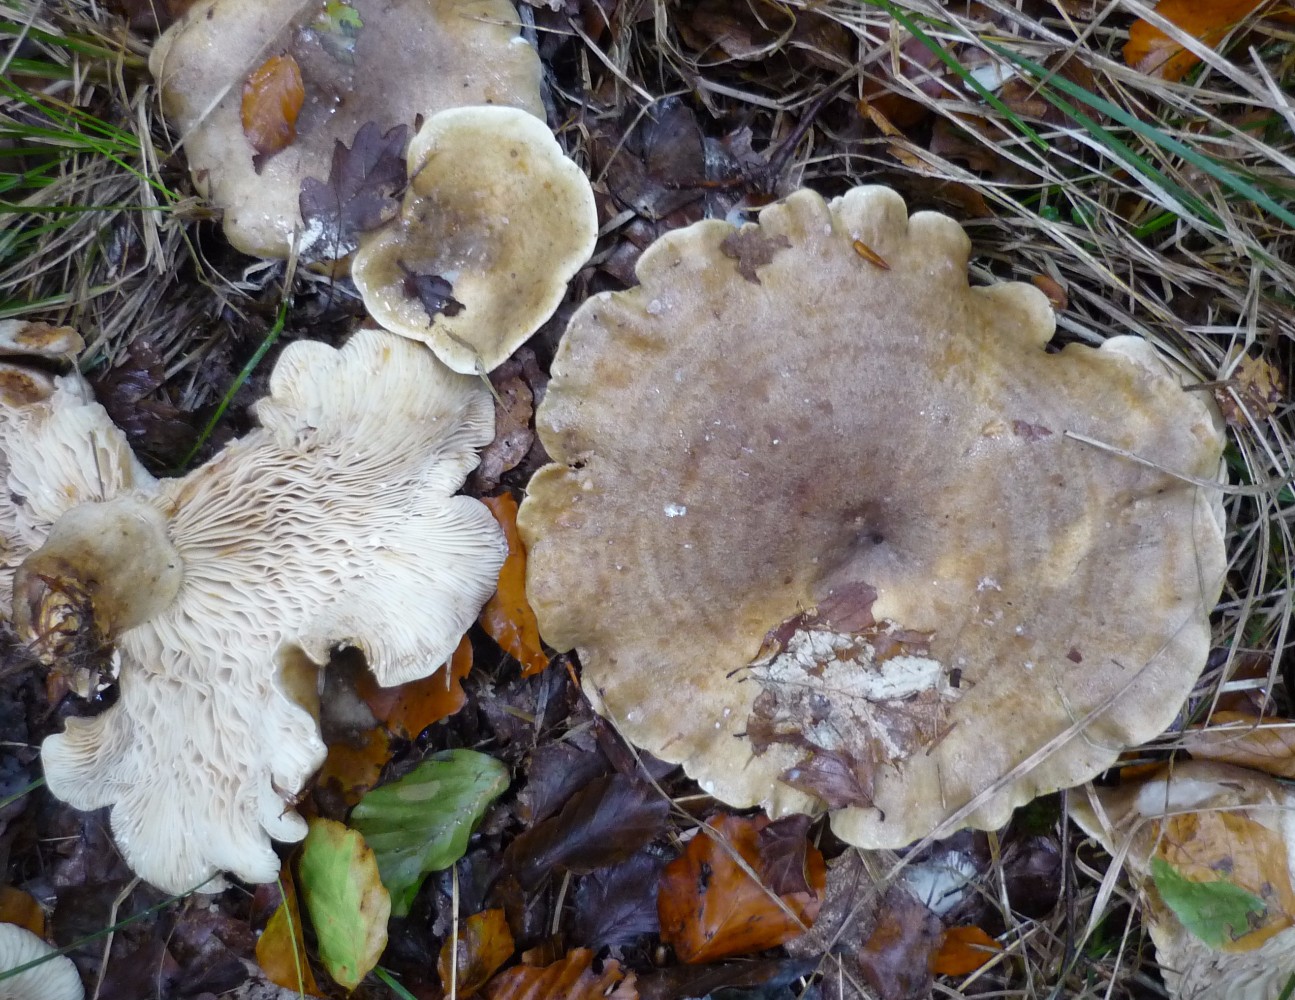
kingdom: Fungi
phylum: Basidiomycota
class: Agaricomycetes
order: Russulales
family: Russulaceae
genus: Lactarius
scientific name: Lactarius fluens
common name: lysrandet mælkehat
